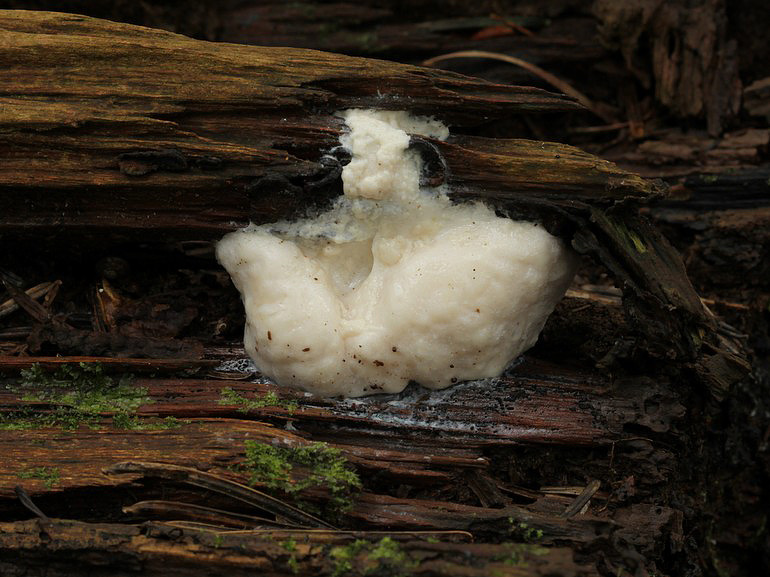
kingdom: Protozoa
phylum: Mycetozoa
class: Myxomycetes
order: Cribrariales
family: Tubiferaceae
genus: Reticularia
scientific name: Reticularia lycoperdon
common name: skinnende støvpude
